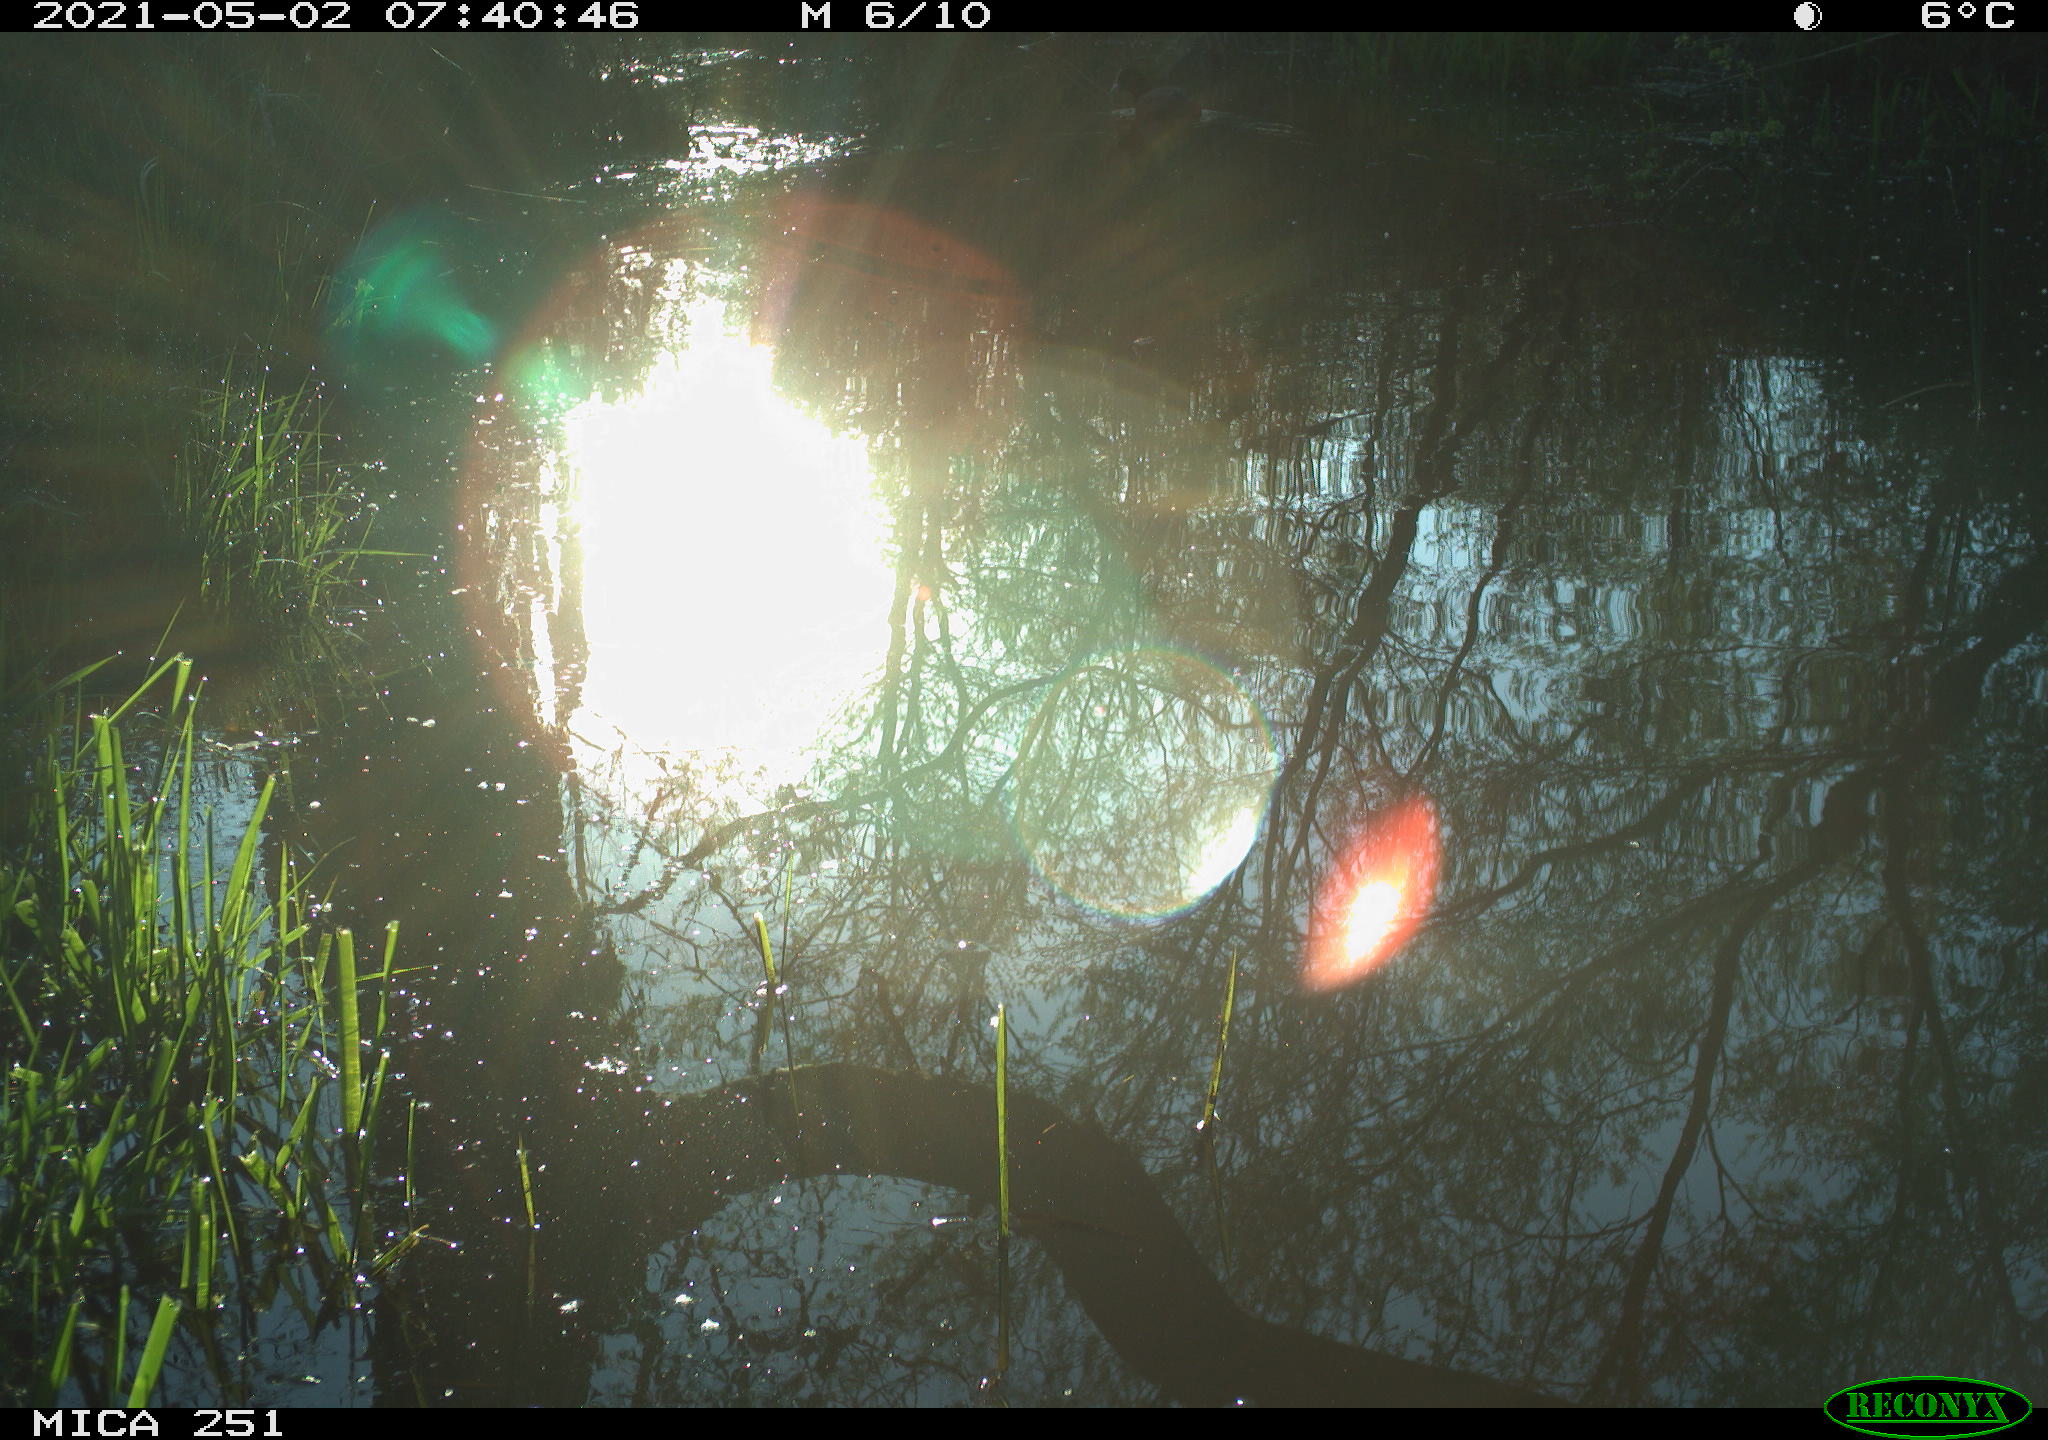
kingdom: Animalia
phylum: Chordata
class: Aves
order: Gruiformes
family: Rallidae
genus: Fulica
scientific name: Fulica atra
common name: Eurasian coot
